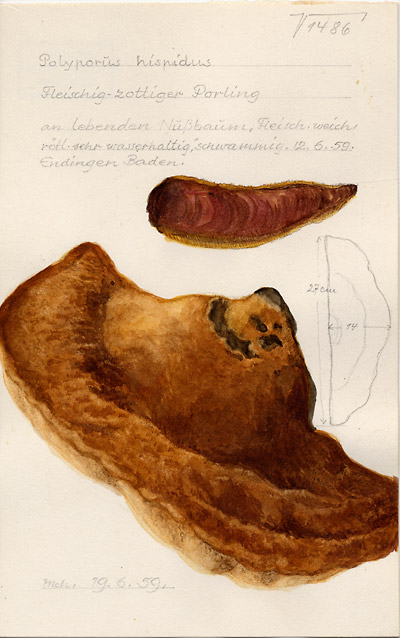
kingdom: Fungi
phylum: Basidiomycota
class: Agaricomycetes
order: Hymenochaetales
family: Hymenochaetaceae
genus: Inonotus
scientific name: Inonotus hispidus
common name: Shaggy bracket
